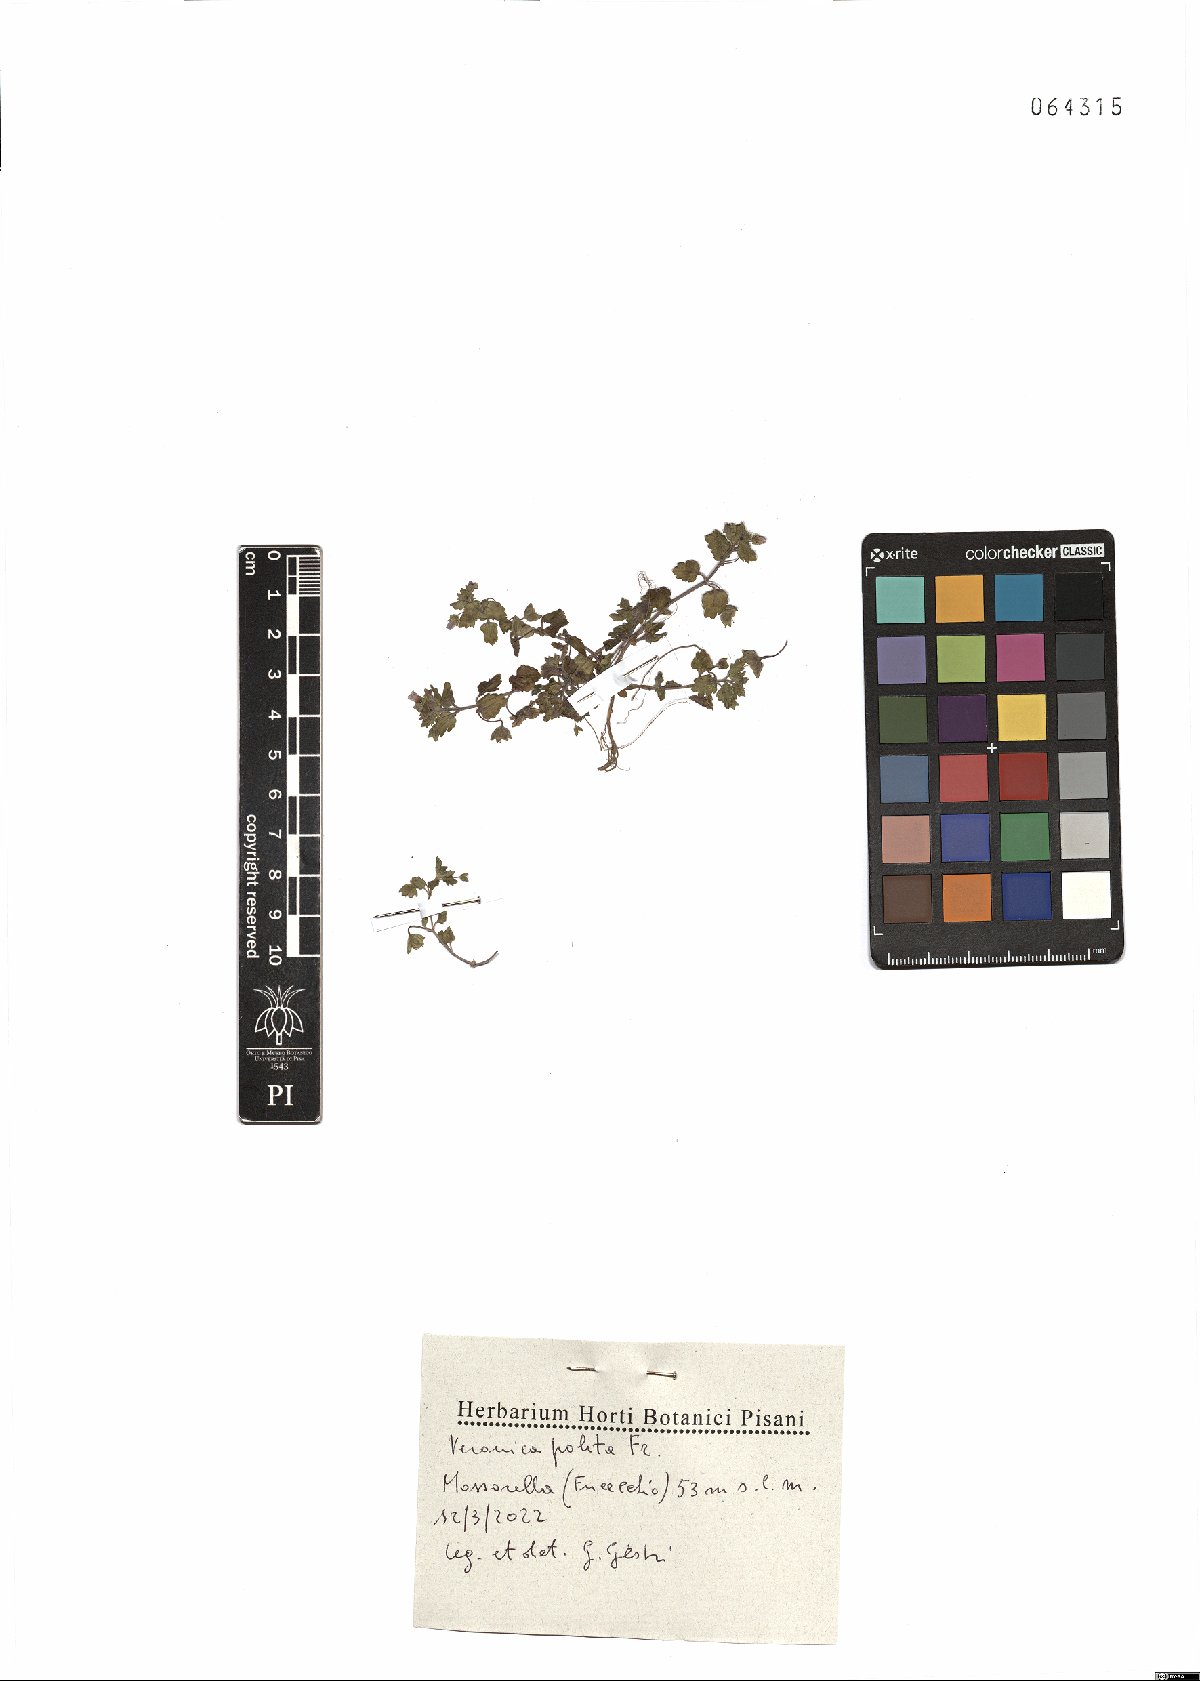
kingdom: Plantae
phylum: Tracheophyta
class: Magnoliopsida
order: Lamiales
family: Plantaginaceae
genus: Veronica
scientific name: Veronica polita
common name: Grey field-speedwell
